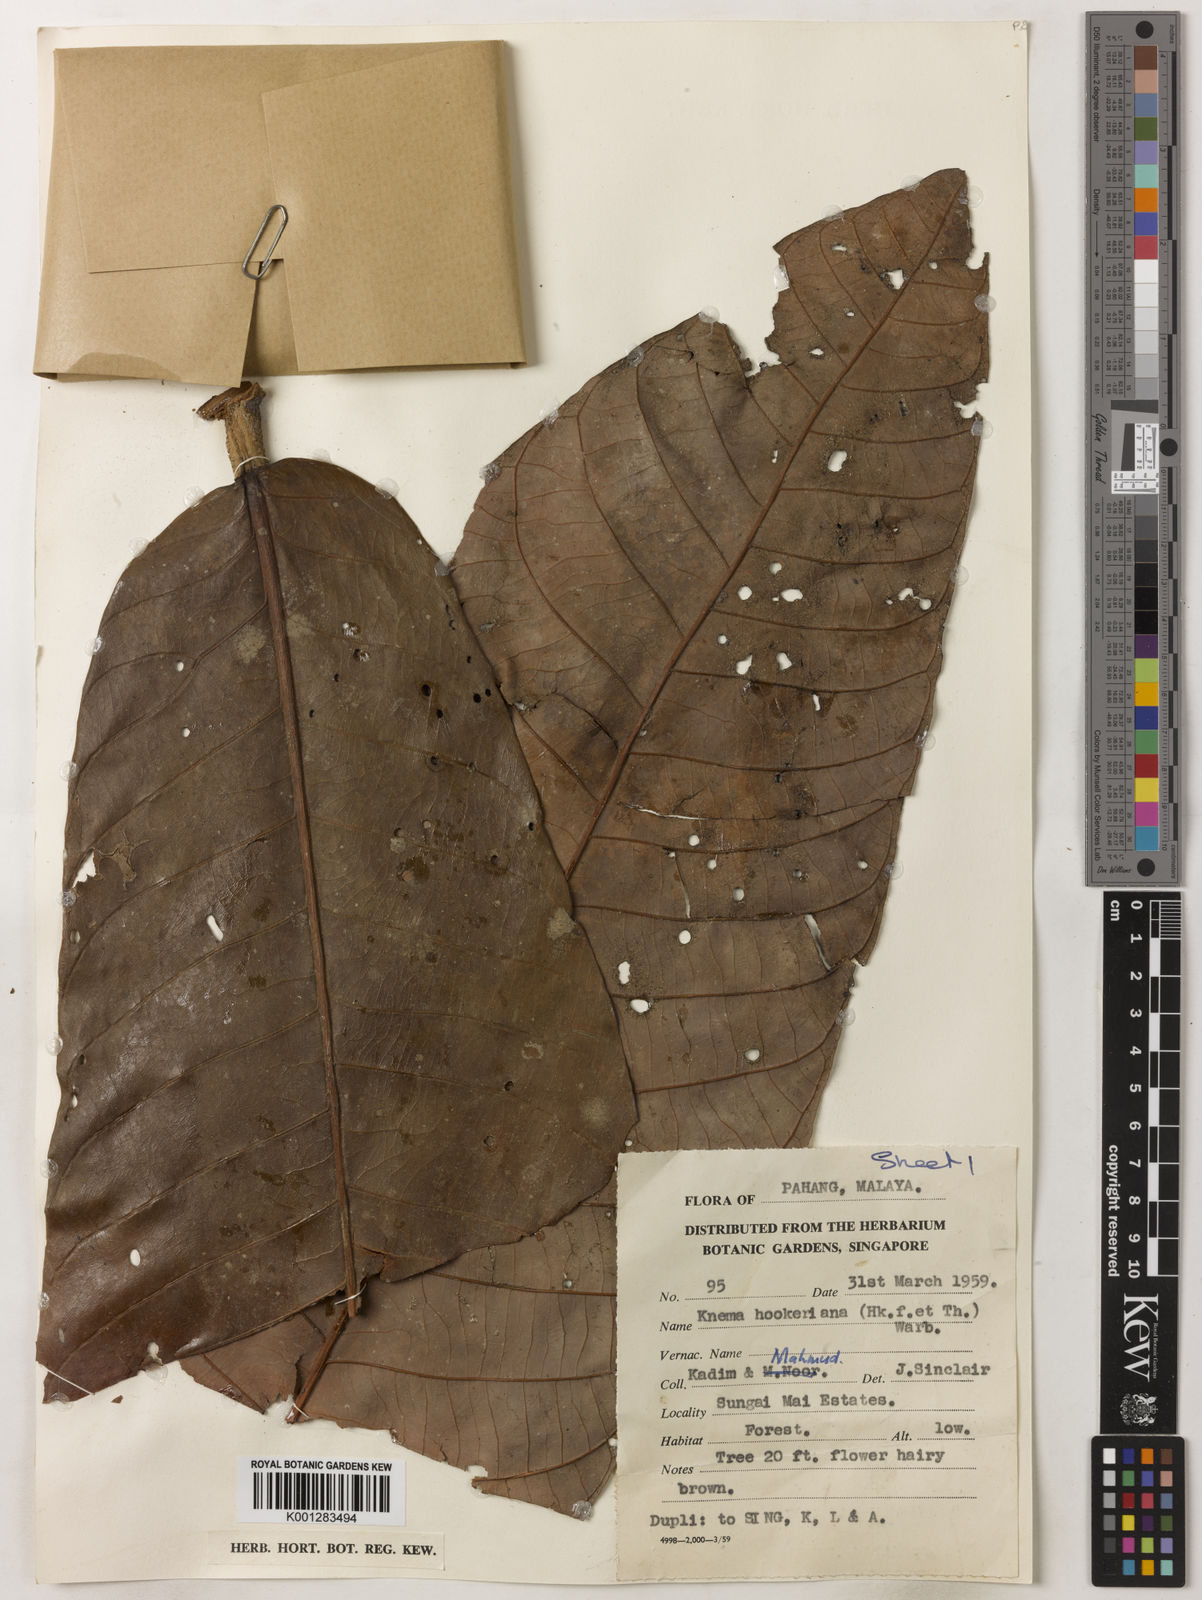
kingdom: Plantae
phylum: Tracheophyta
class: Magnoliopsida
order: Magnoliales
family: Myristicaceae
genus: Knema
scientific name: Knema hookeriana
